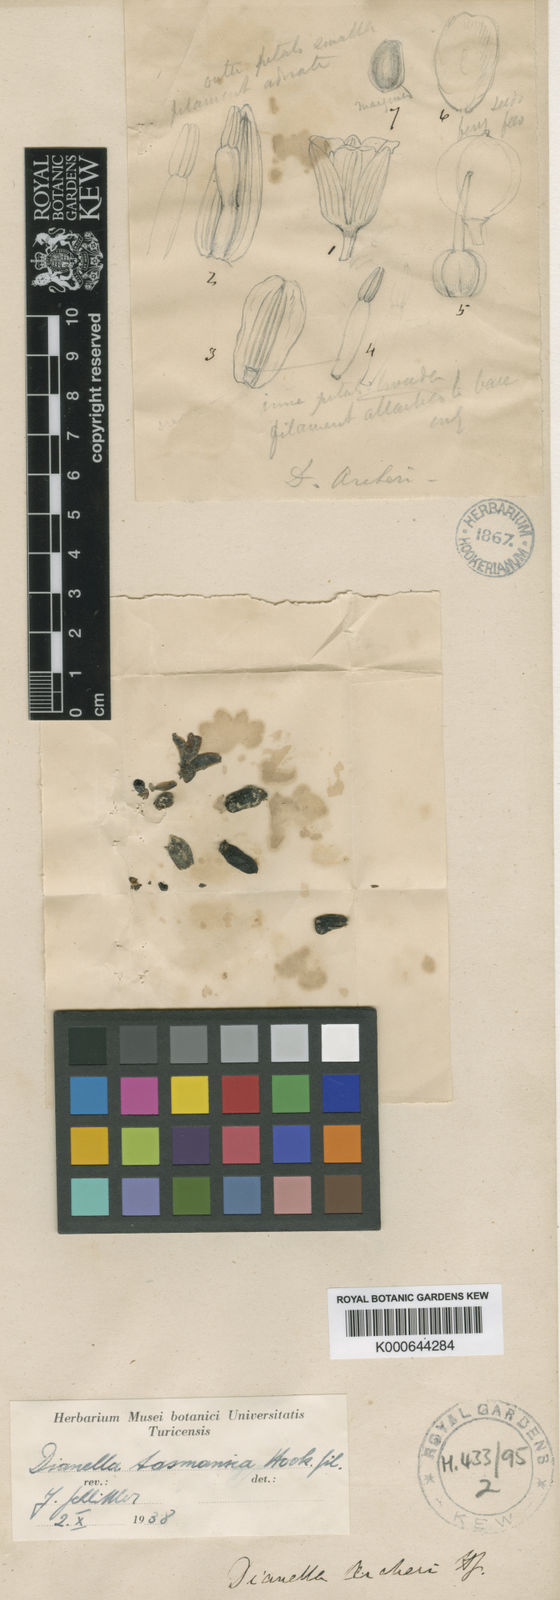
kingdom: Plantae
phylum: Tracheophyta
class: Liliopsida
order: Asparagales
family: Asphodelaceae
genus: Dianella
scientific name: Dianella tasmanica
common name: Tasman flax-lily
